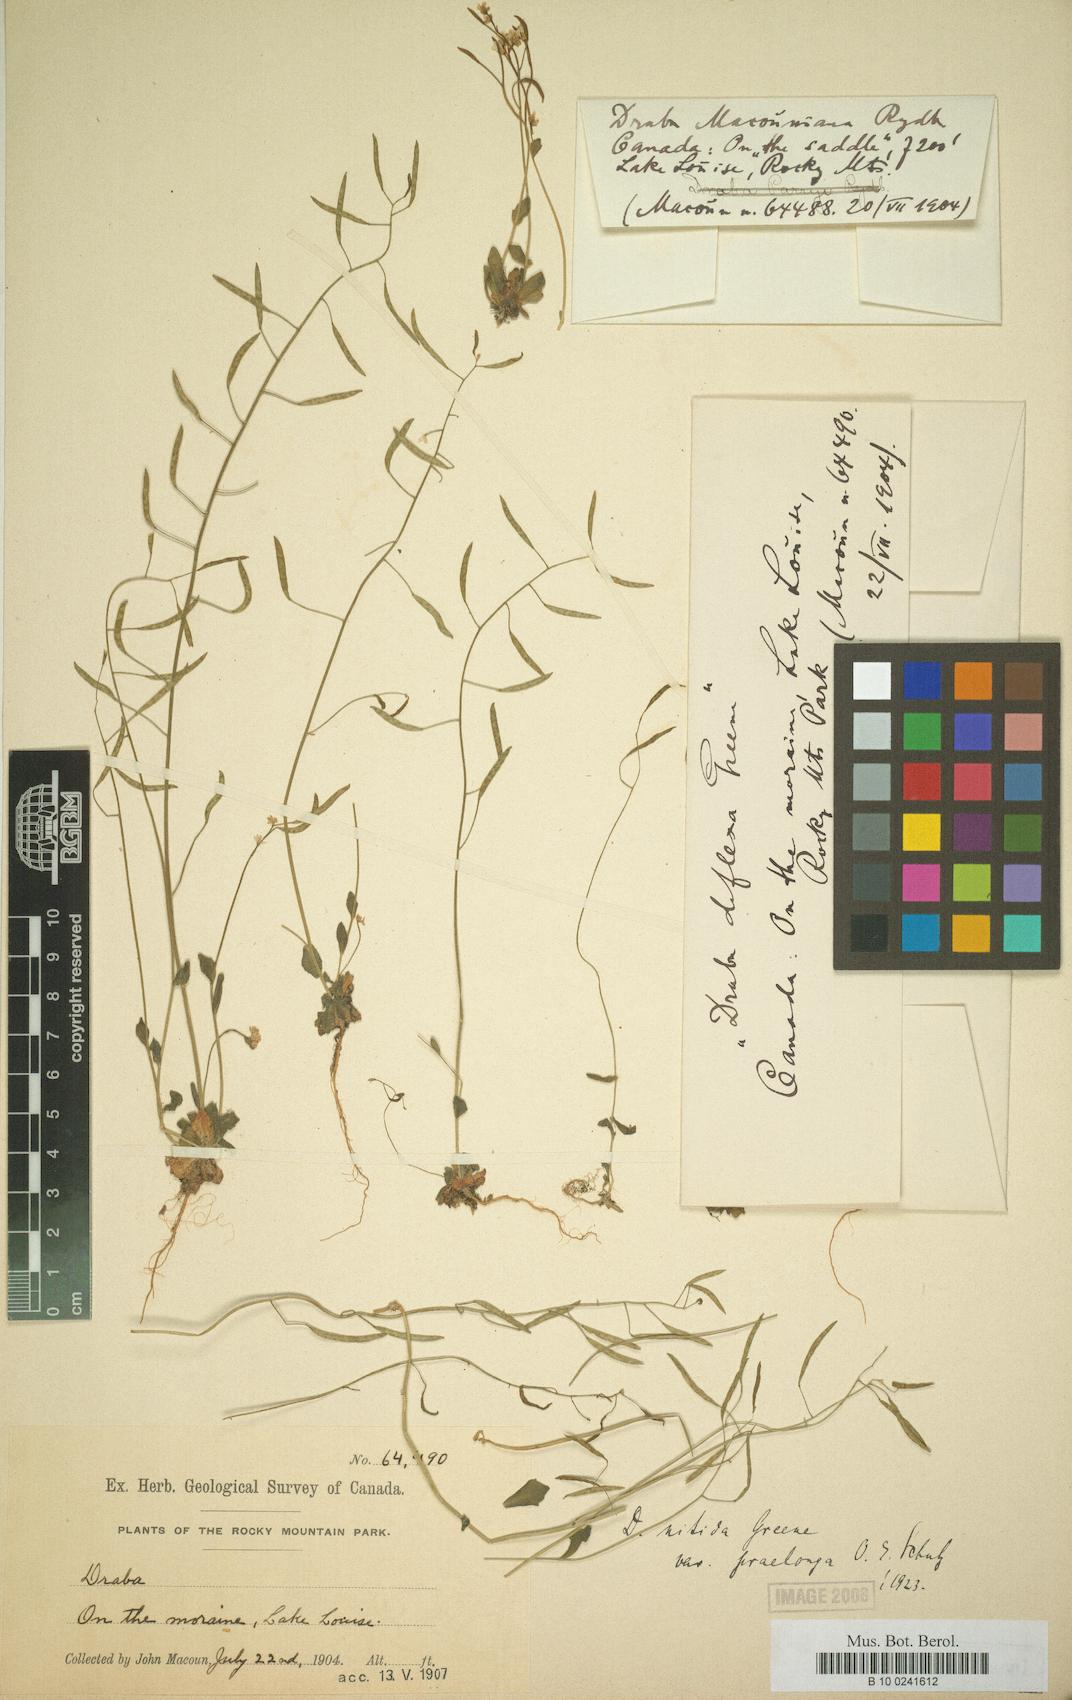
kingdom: Plantae
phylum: Tracheophyta
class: Magnoliopsida
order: Brassicales
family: Brassicaceae
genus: Draba
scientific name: Draba stenoloba
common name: Alaska draba
